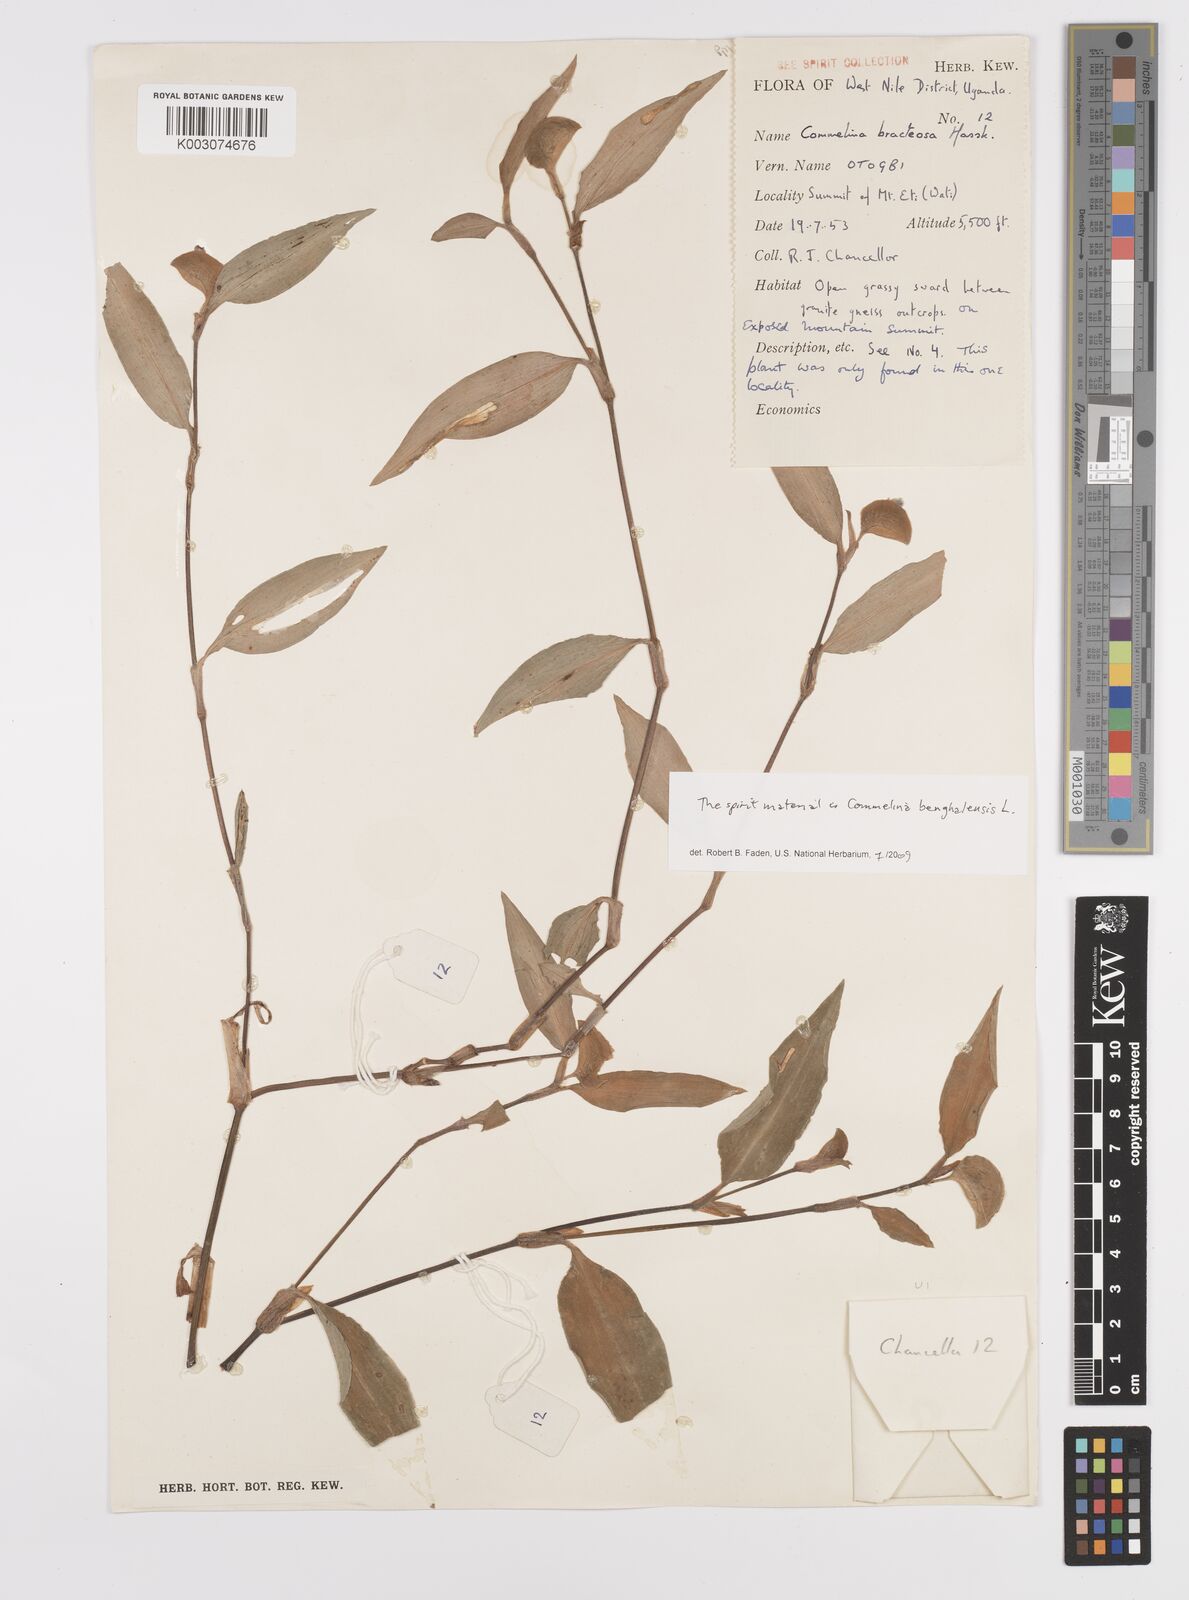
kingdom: Plantae
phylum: Tracheophyta
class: Liliopsida
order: Commelinales
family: Commelinaceae
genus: Commelina
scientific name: Commelina bracteosa
